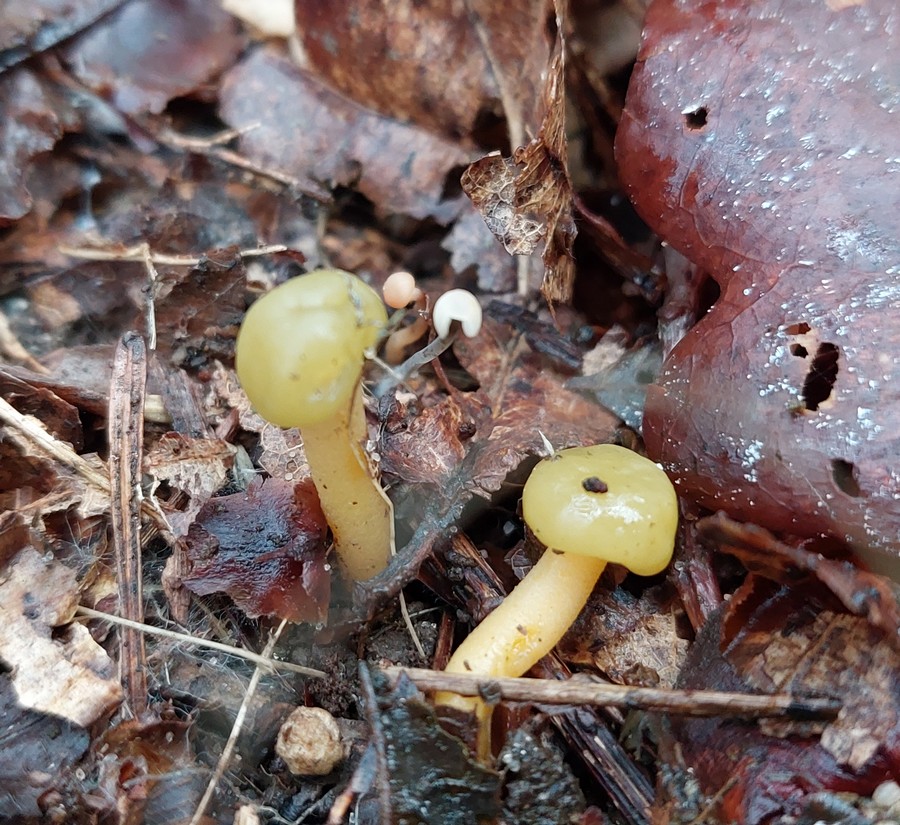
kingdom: Fungi
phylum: Ascomycota
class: Leotiomycetes
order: Leotiales
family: Leotiaceae
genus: Leotia
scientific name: Leotia lubrica
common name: ravsvamp
